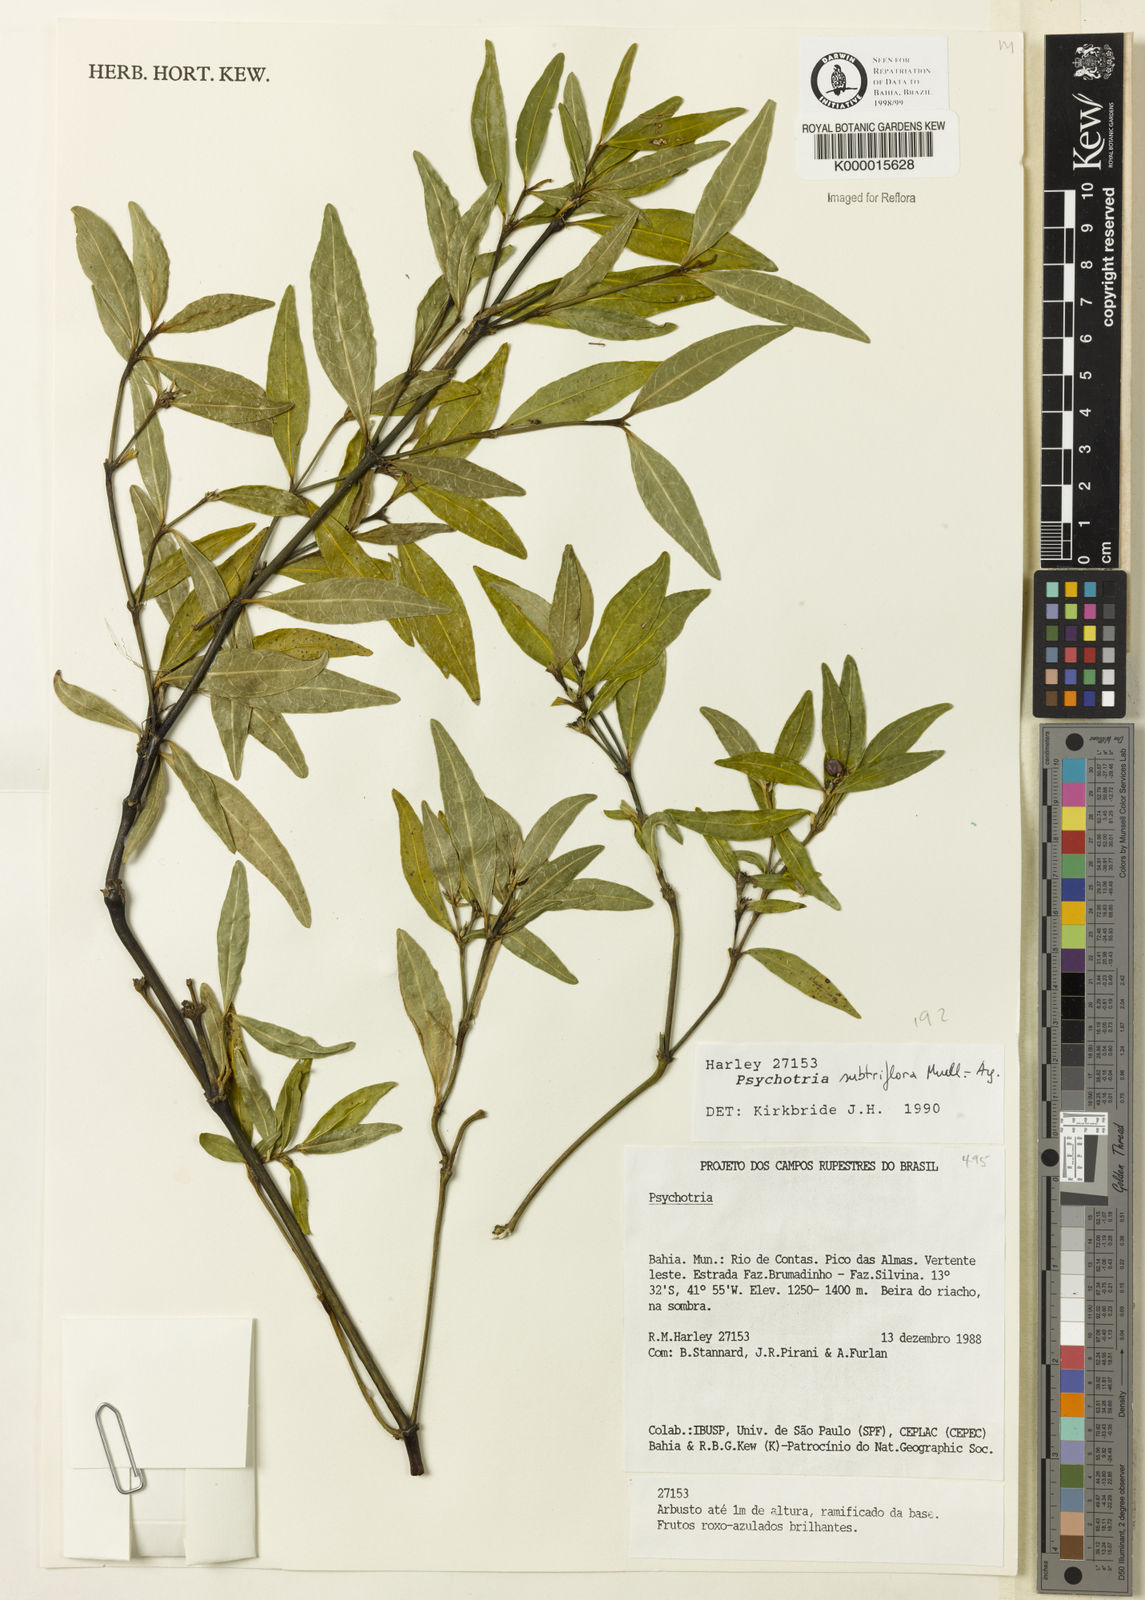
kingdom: Plantae
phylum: Tracheophyta
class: Magnoliopsida
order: Gentianales
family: Rubiaceae
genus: Psychotria
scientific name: Psychotria subtriflora
